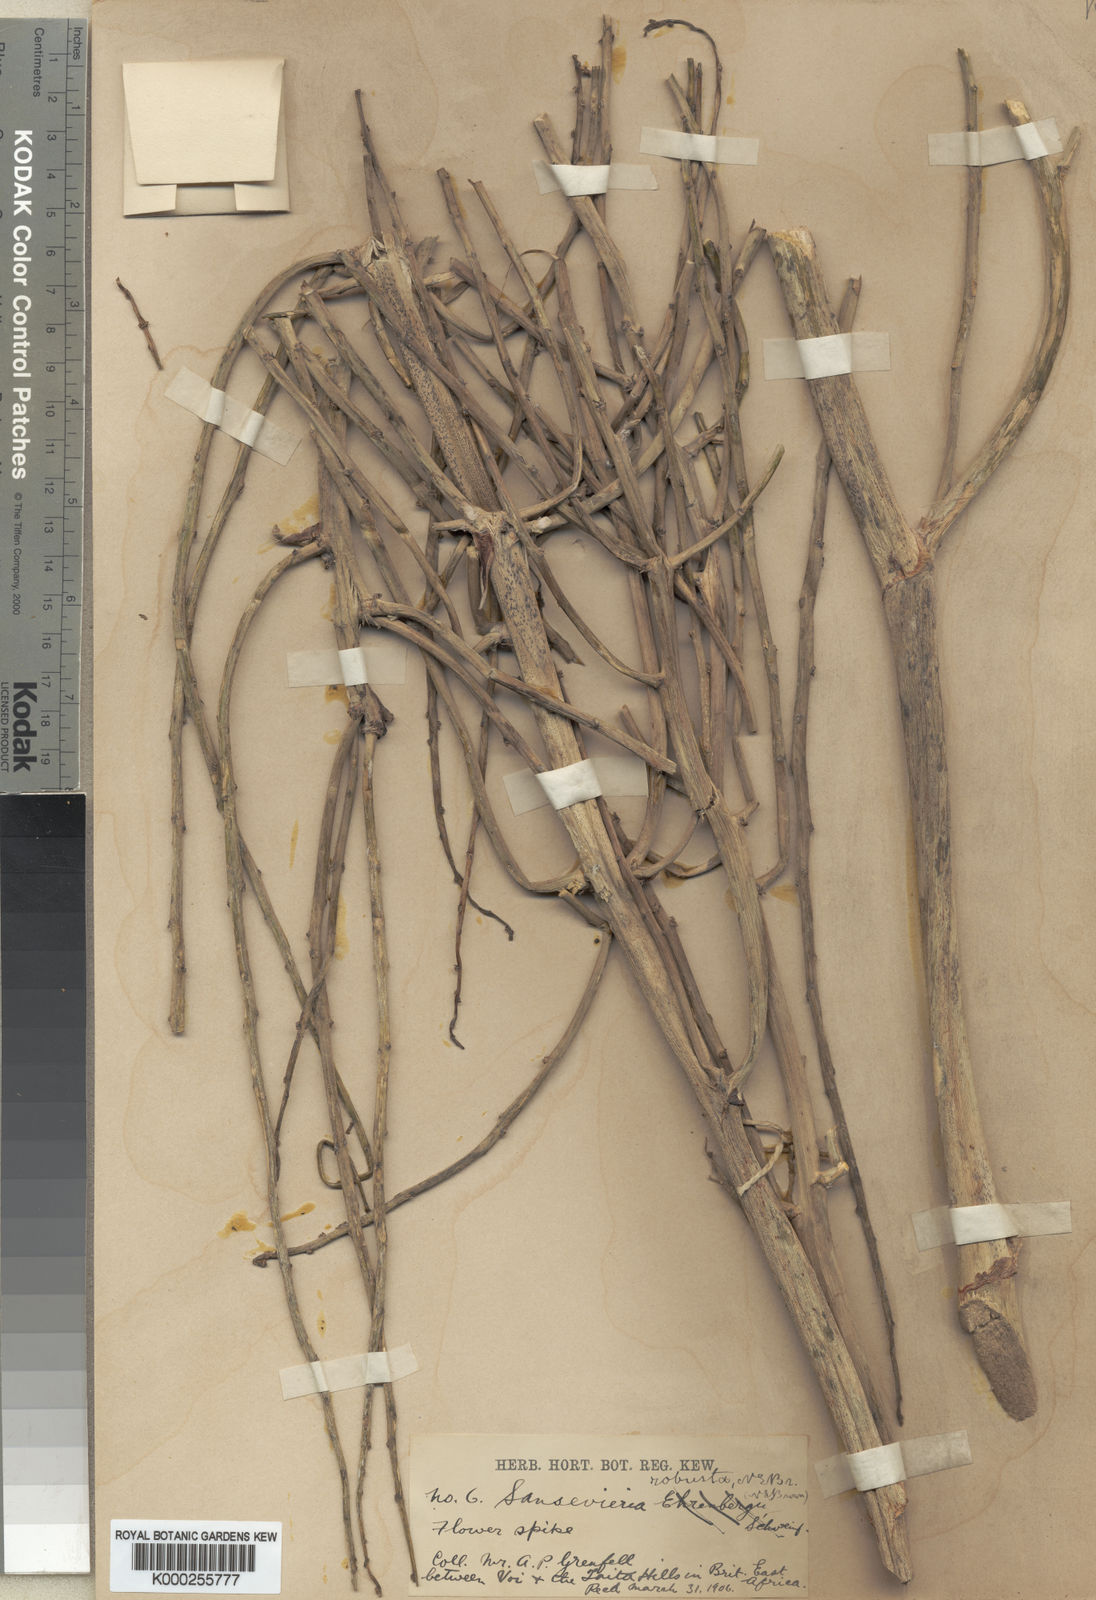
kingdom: Plantae
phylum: Tracheophyta
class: Liliopsida
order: Asparagales
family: Asparagaceae
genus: Dracaena
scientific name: Dracaena perrotii
